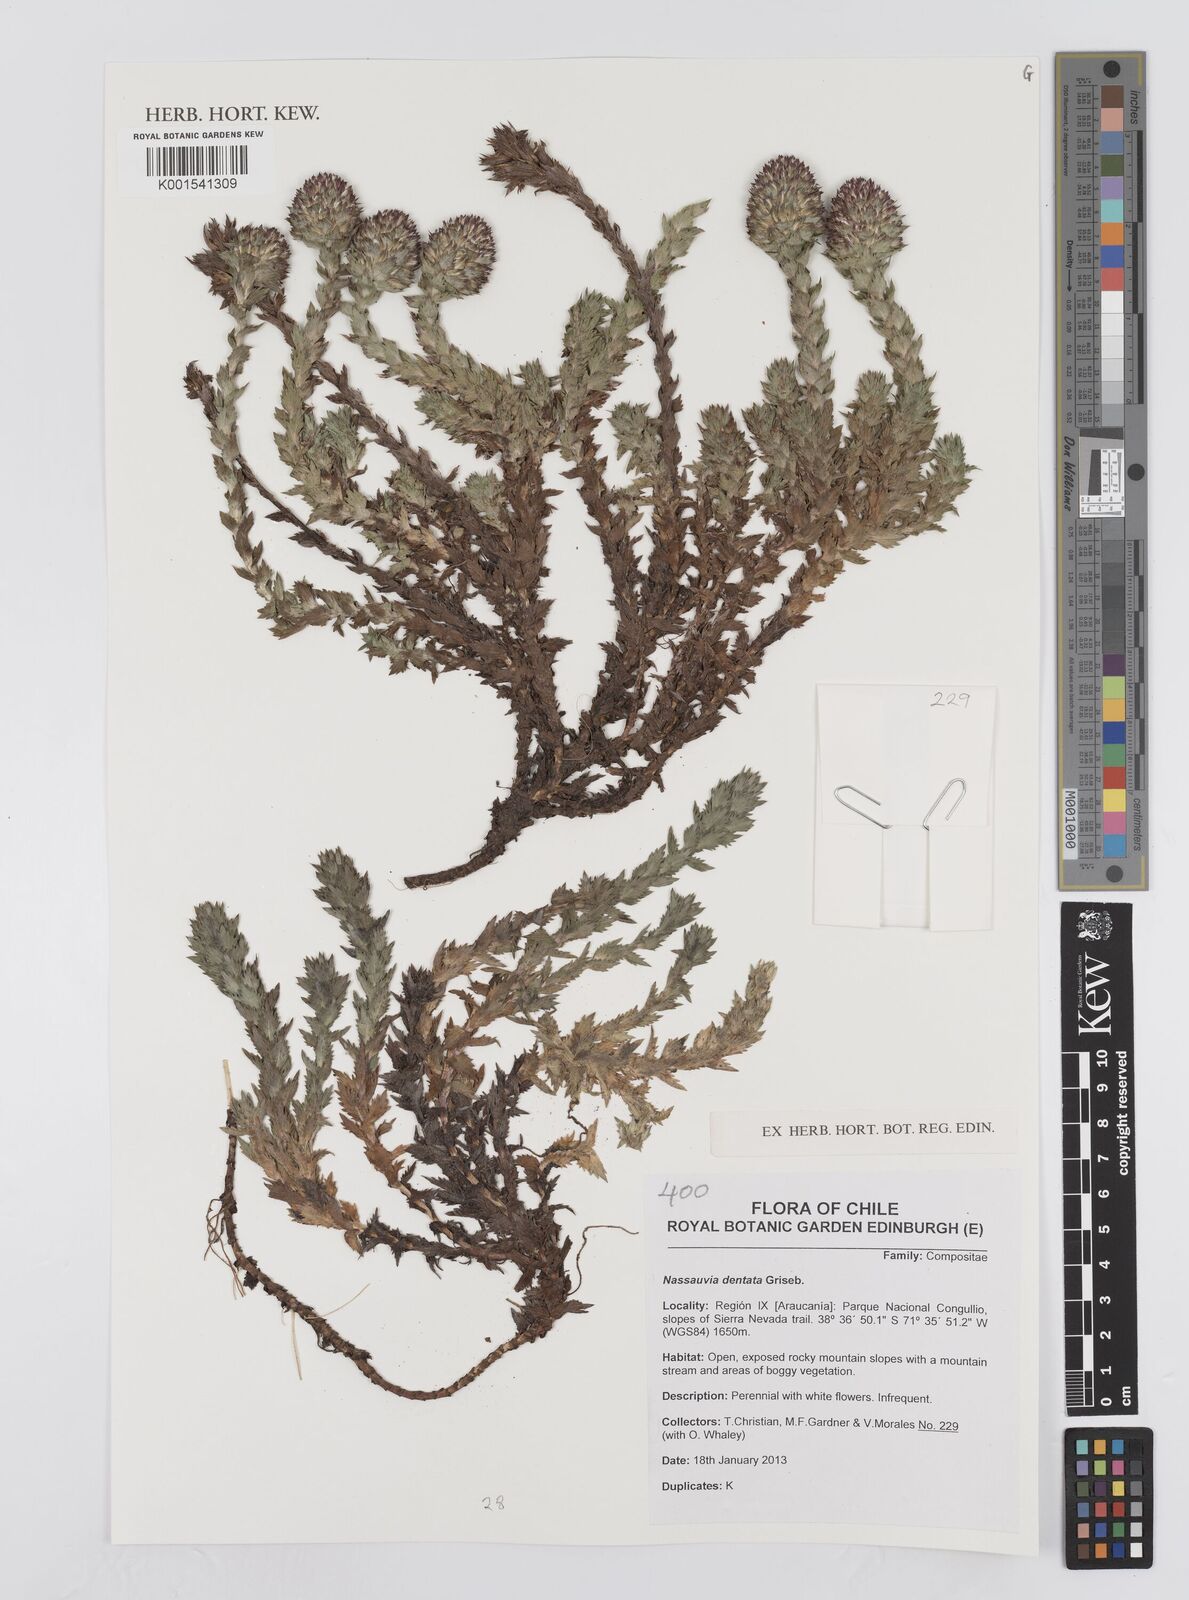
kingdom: Plantae
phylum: Tracheophyta
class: Magnoliopsida
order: Asterales
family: Asteraceae
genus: Nassauvia
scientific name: Nassauvia dentata
